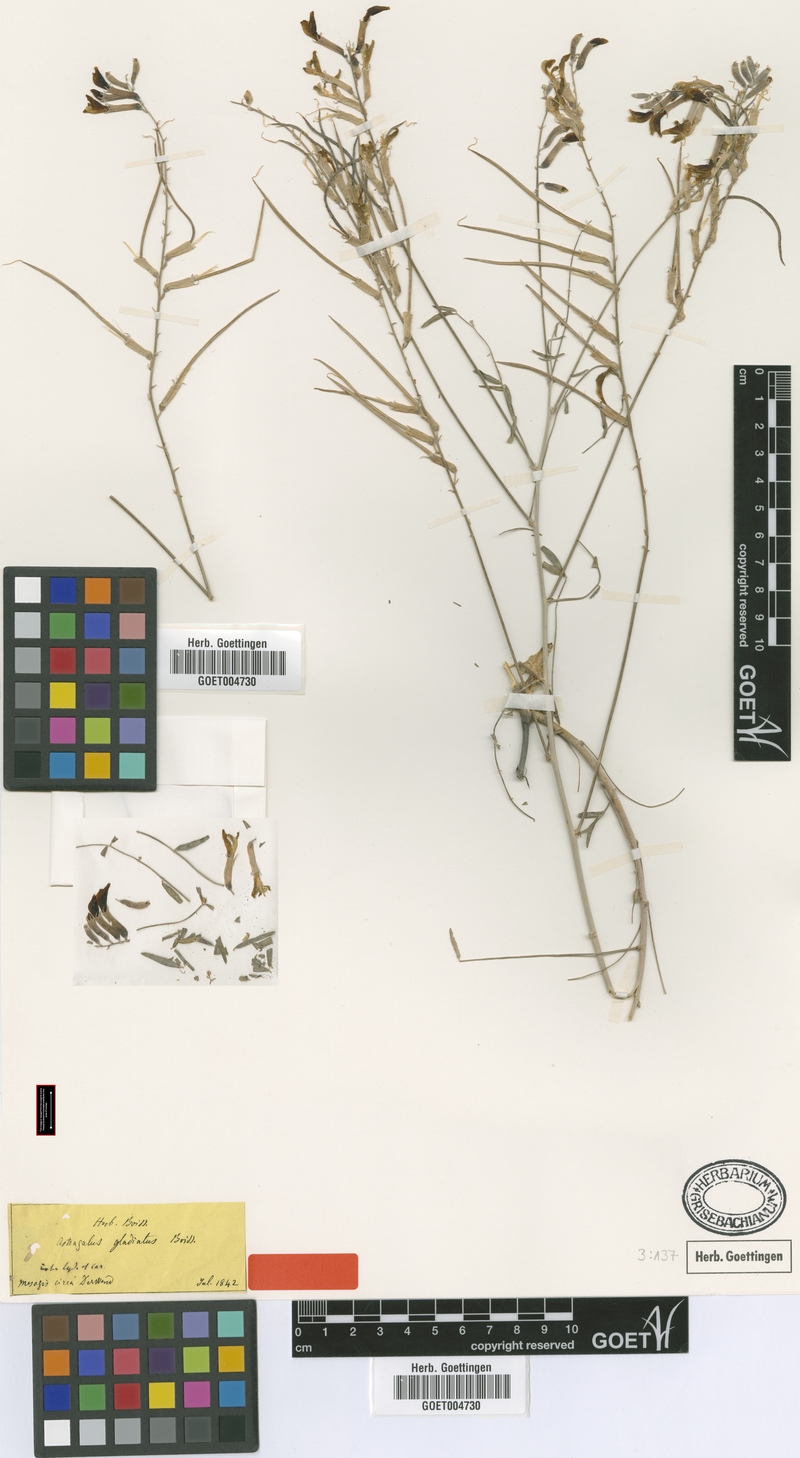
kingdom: Plantae
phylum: Tracheophyta
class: Magnoliopsida
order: Fabales
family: Fabaceae
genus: Astragalus
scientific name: Astragalus gladiatus
